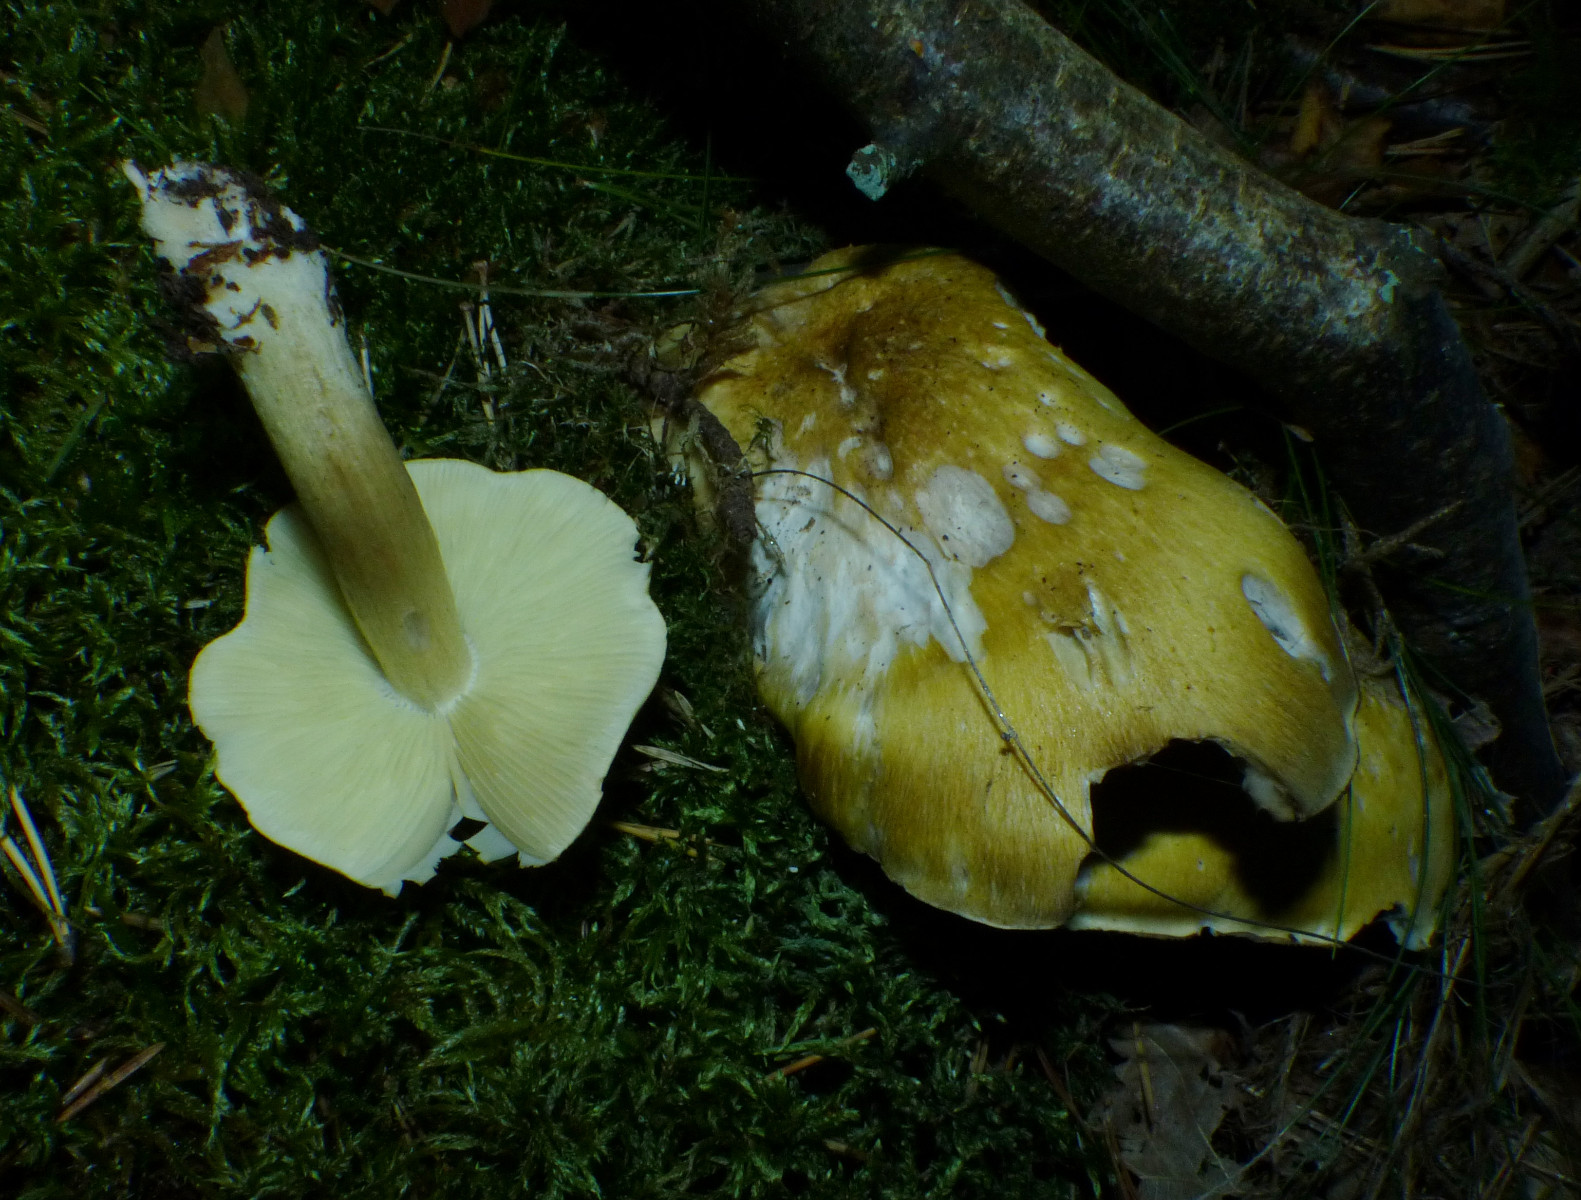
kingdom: Fungi
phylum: Basidiomycota
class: Agaricomycetes
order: Agaricales
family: Tricholomataceae
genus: Tricholoma
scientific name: Tricholoma aestuans
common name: kegle-ridderhat
